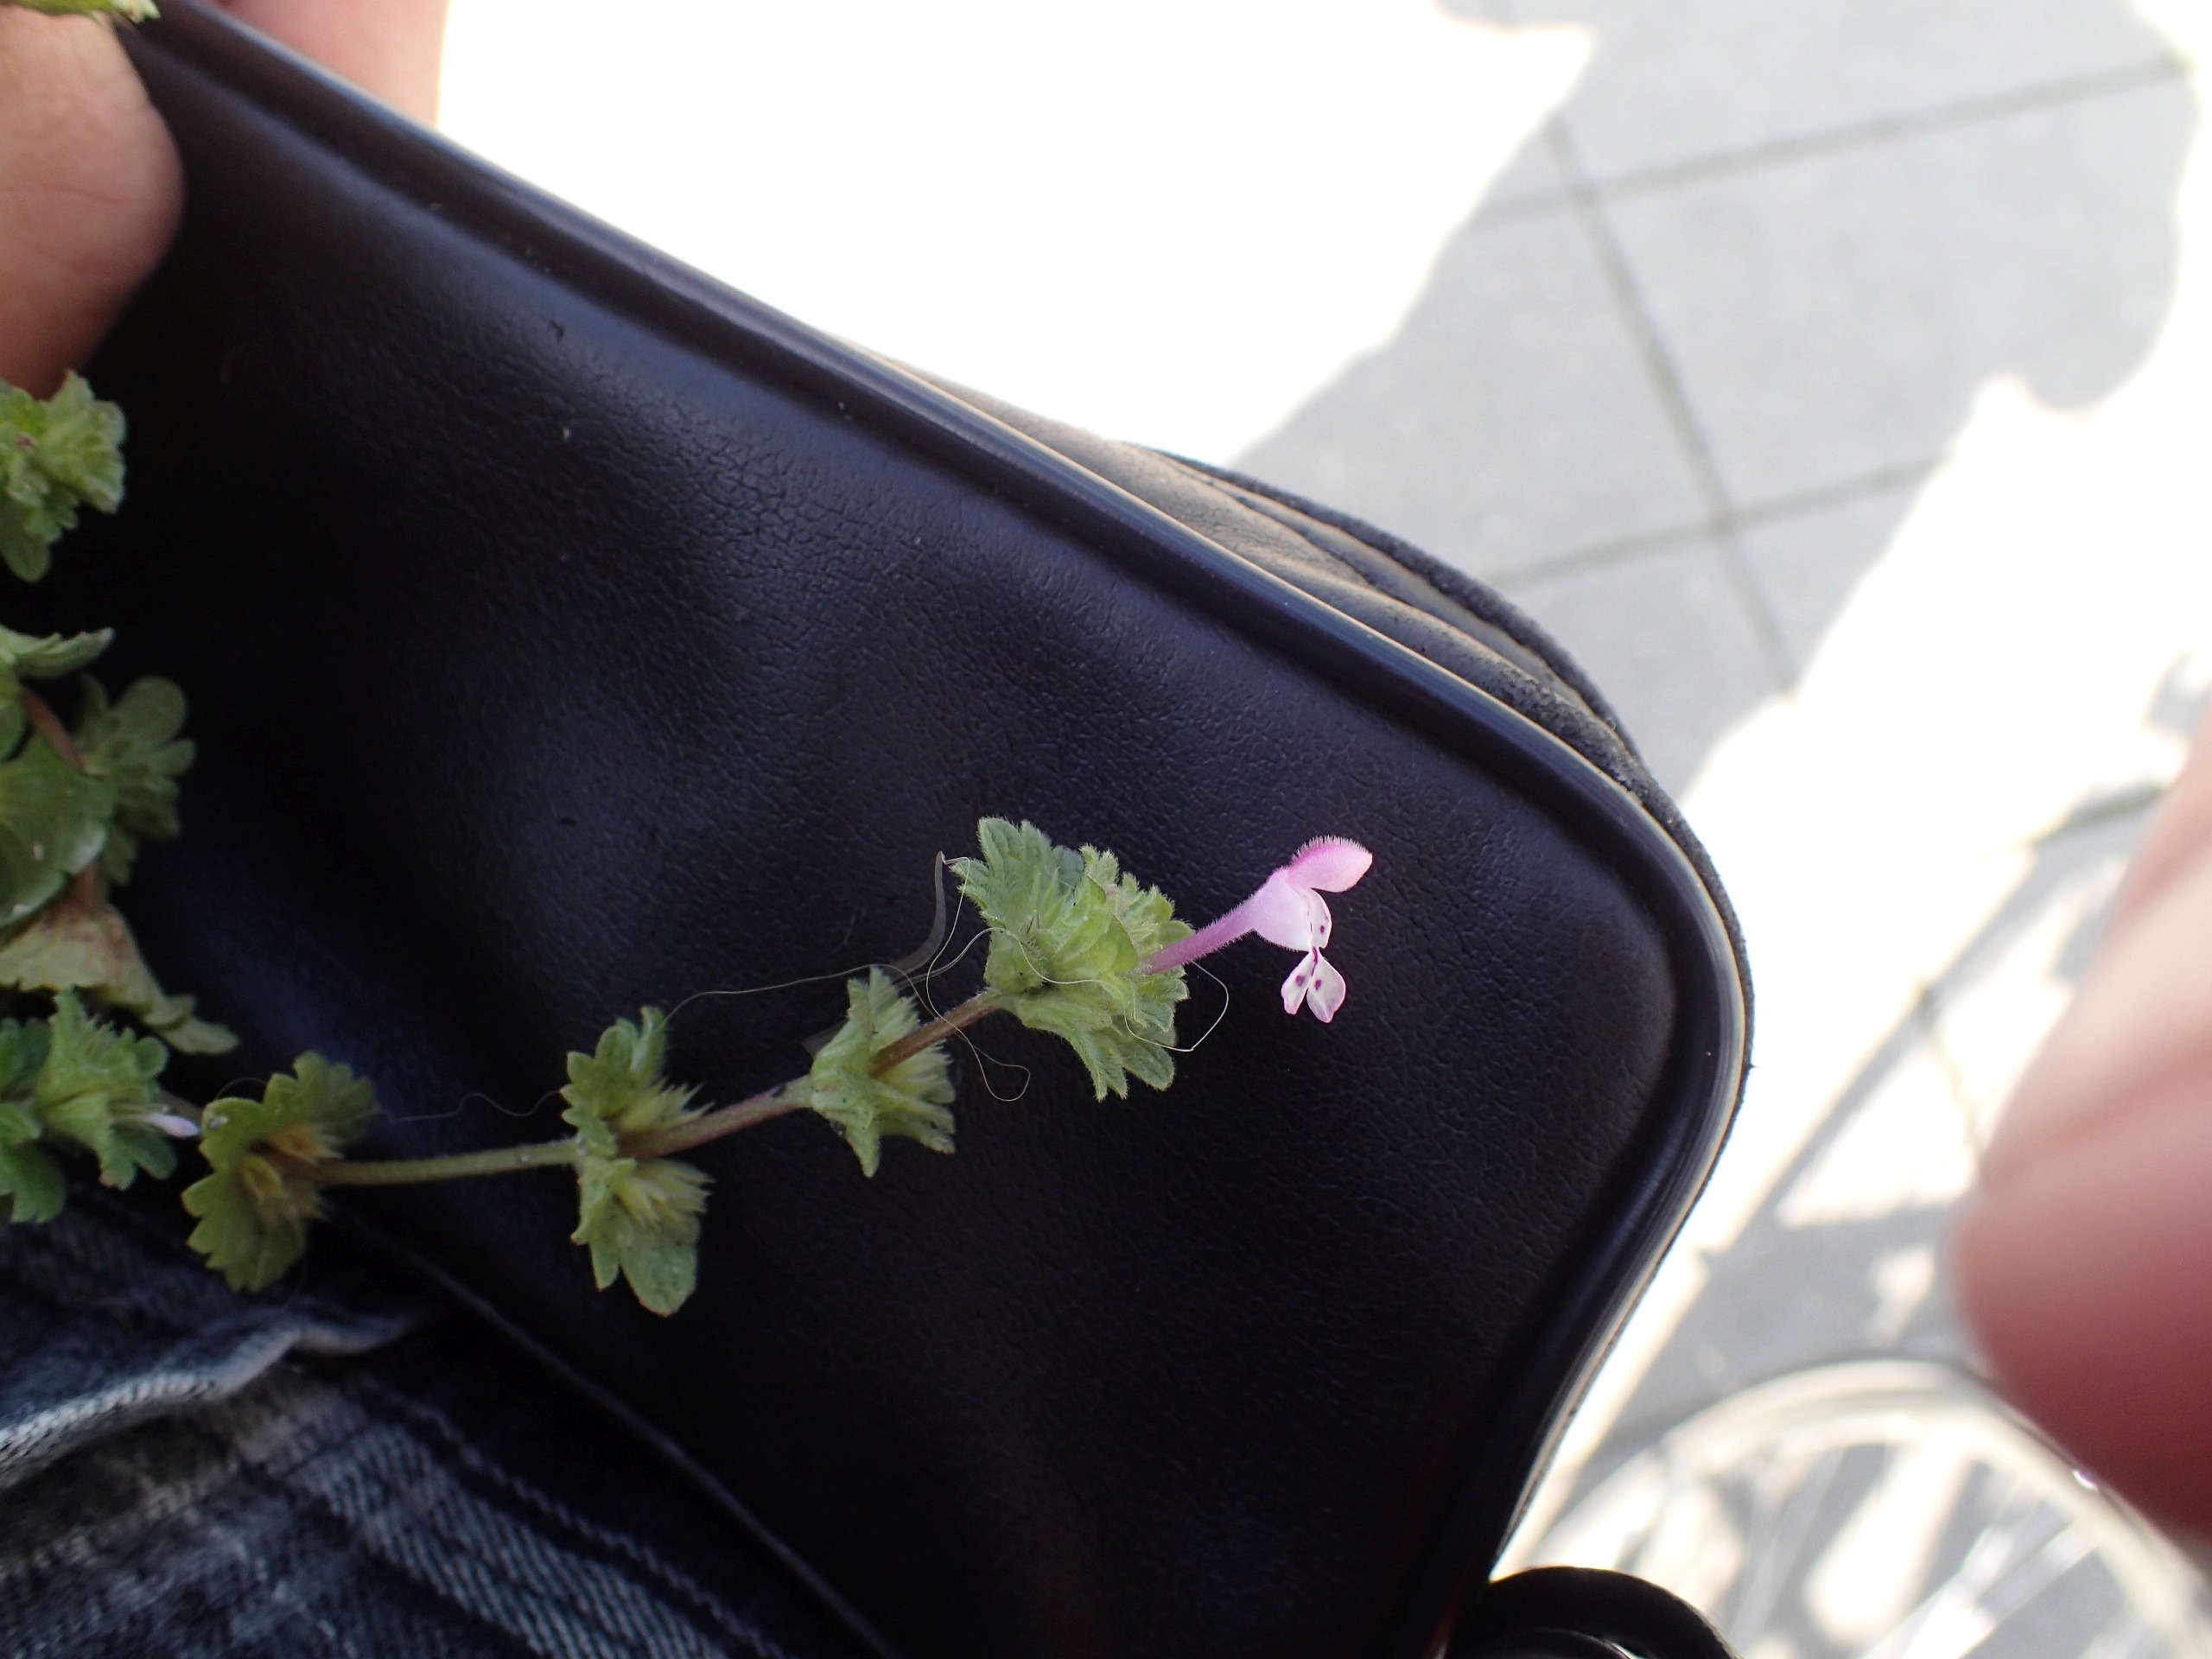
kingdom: Plantae
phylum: Tracheophyta
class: Magnoliopsida
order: Lamiales
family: Lamiaceae
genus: Lamium
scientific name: Lamium amplexicaule
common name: Liden tvetand
